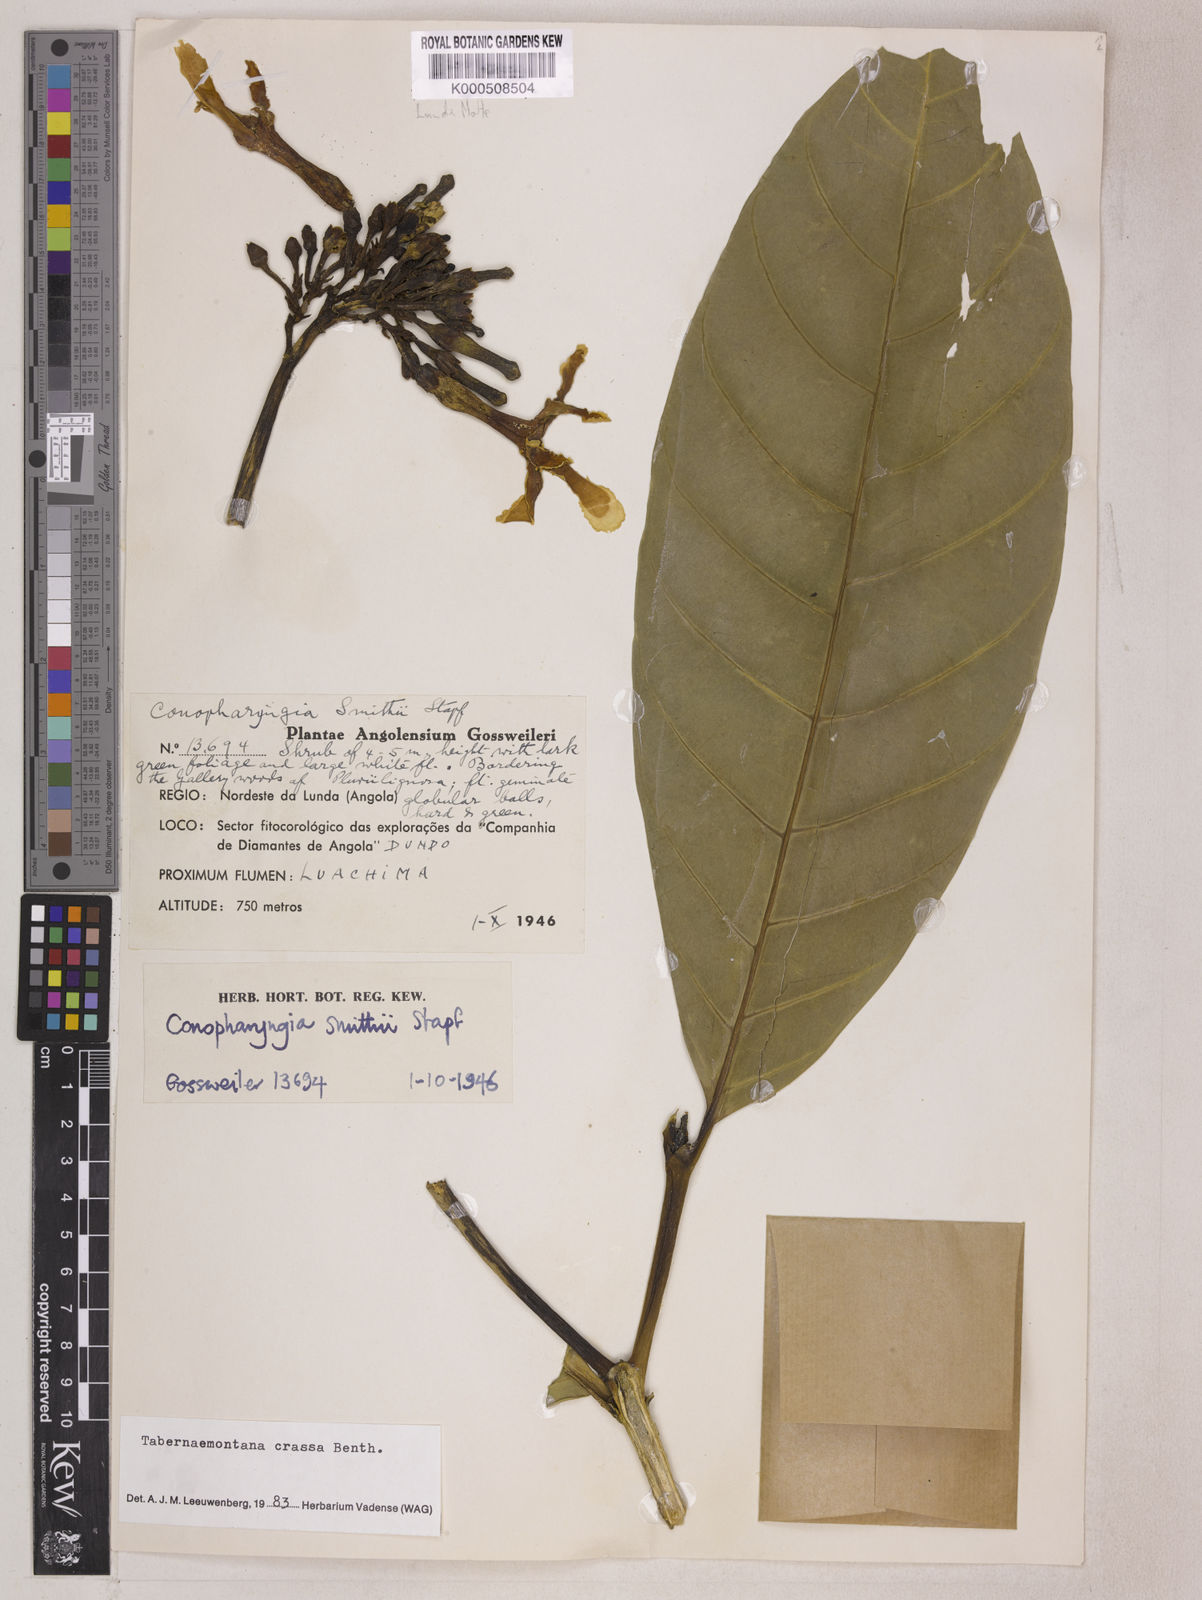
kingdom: Plantae
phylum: Tracheophyta
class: Magnoliopsida
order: Gentianales
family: Apocynaceae
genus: Tabernaemontana
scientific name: Tabernaemontana crassa
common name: Adam's-apple-flower
